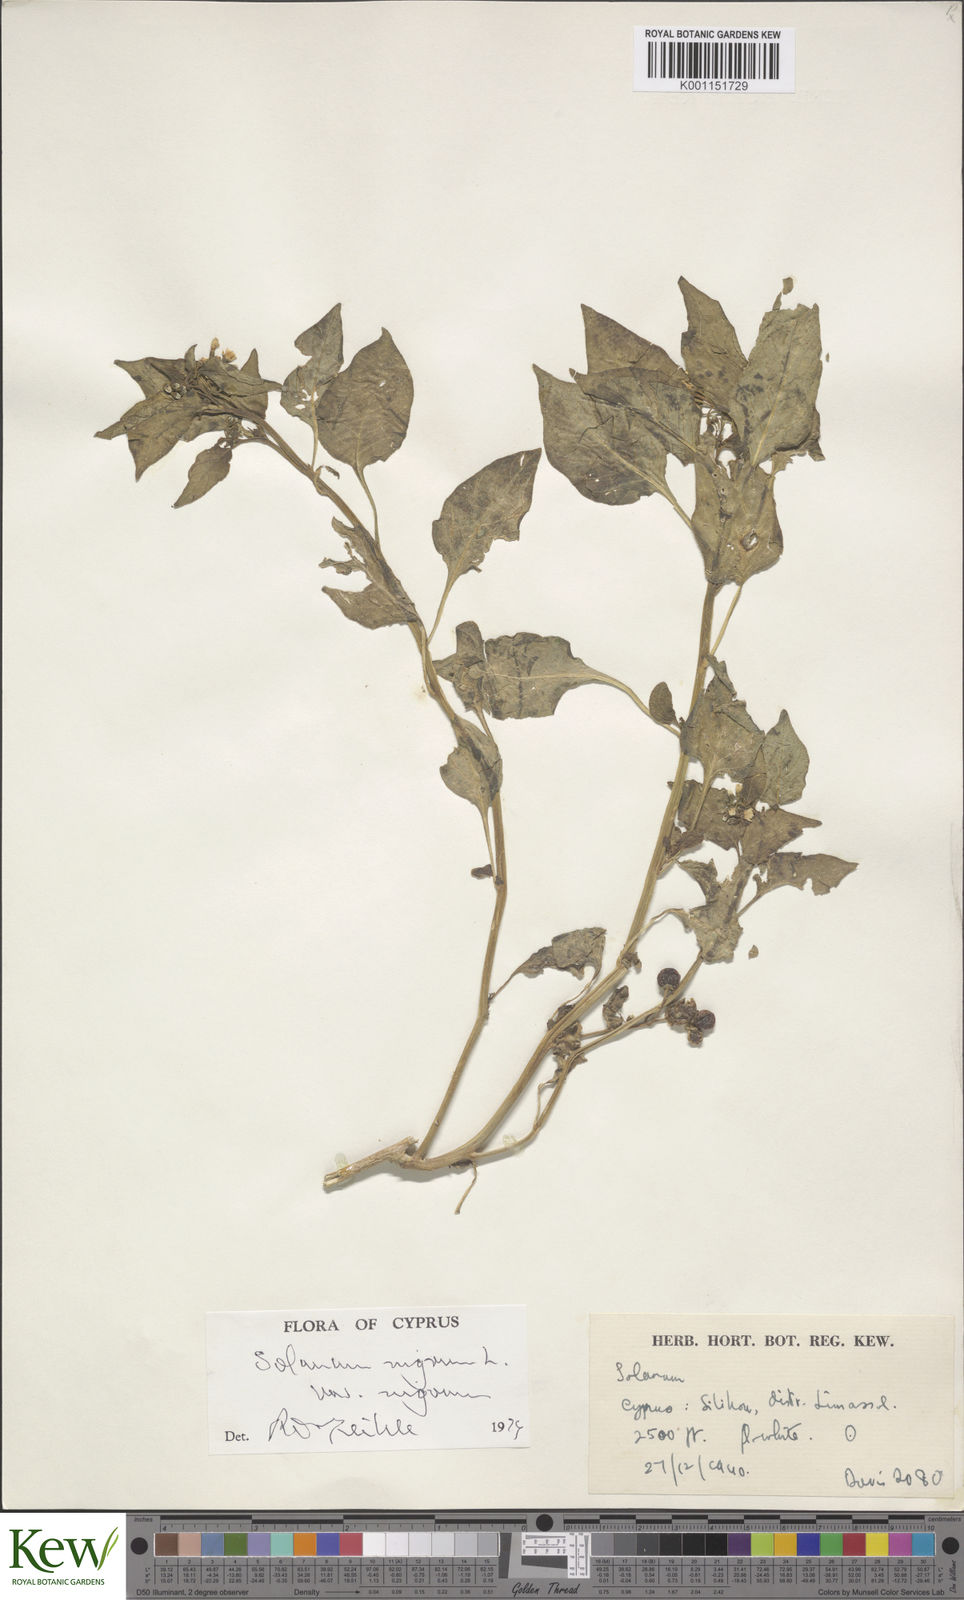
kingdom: Plantae
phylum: Tracheophyta
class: Magnoliopsida
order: Solanales
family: Solanaceae
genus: Solanum
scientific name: Solanum nigrum
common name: Black nightshade
